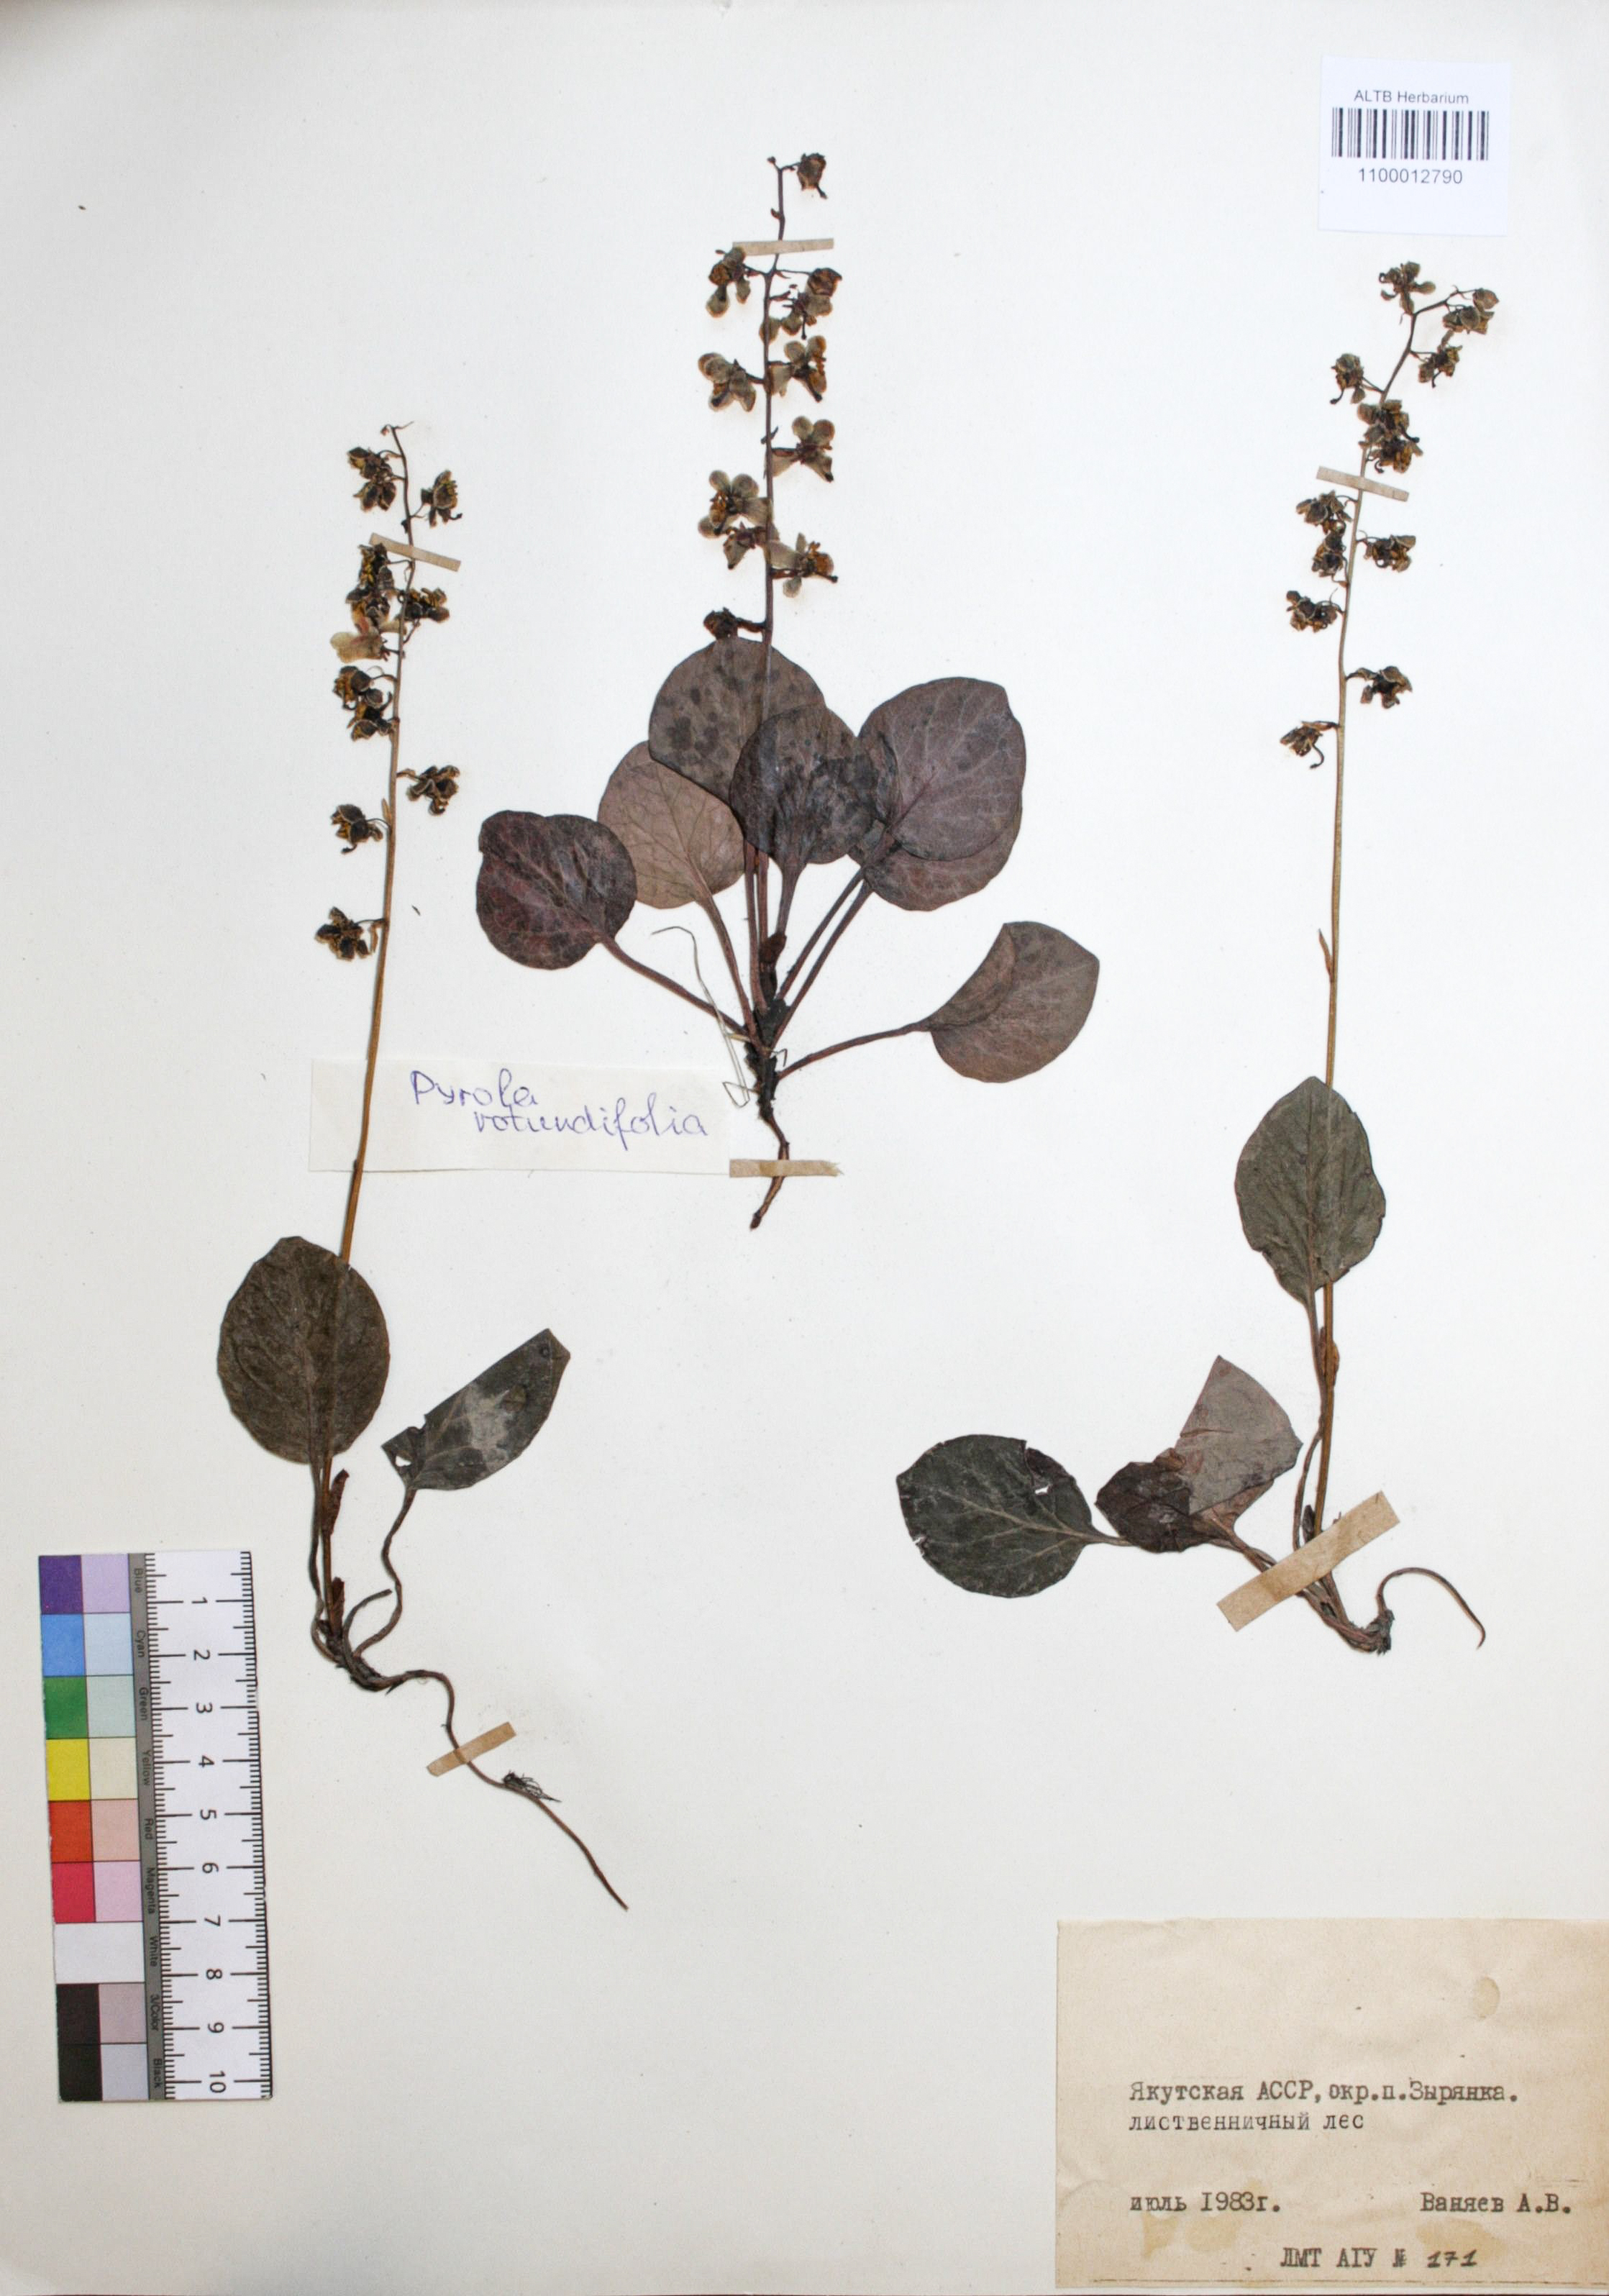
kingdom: Plantae
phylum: Tracheophyta
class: Magnoliopsida
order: Ericales
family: Ericaceae
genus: Pyrola
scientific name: Pyrola rotundifolia
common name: Round-leaved wintergreen
